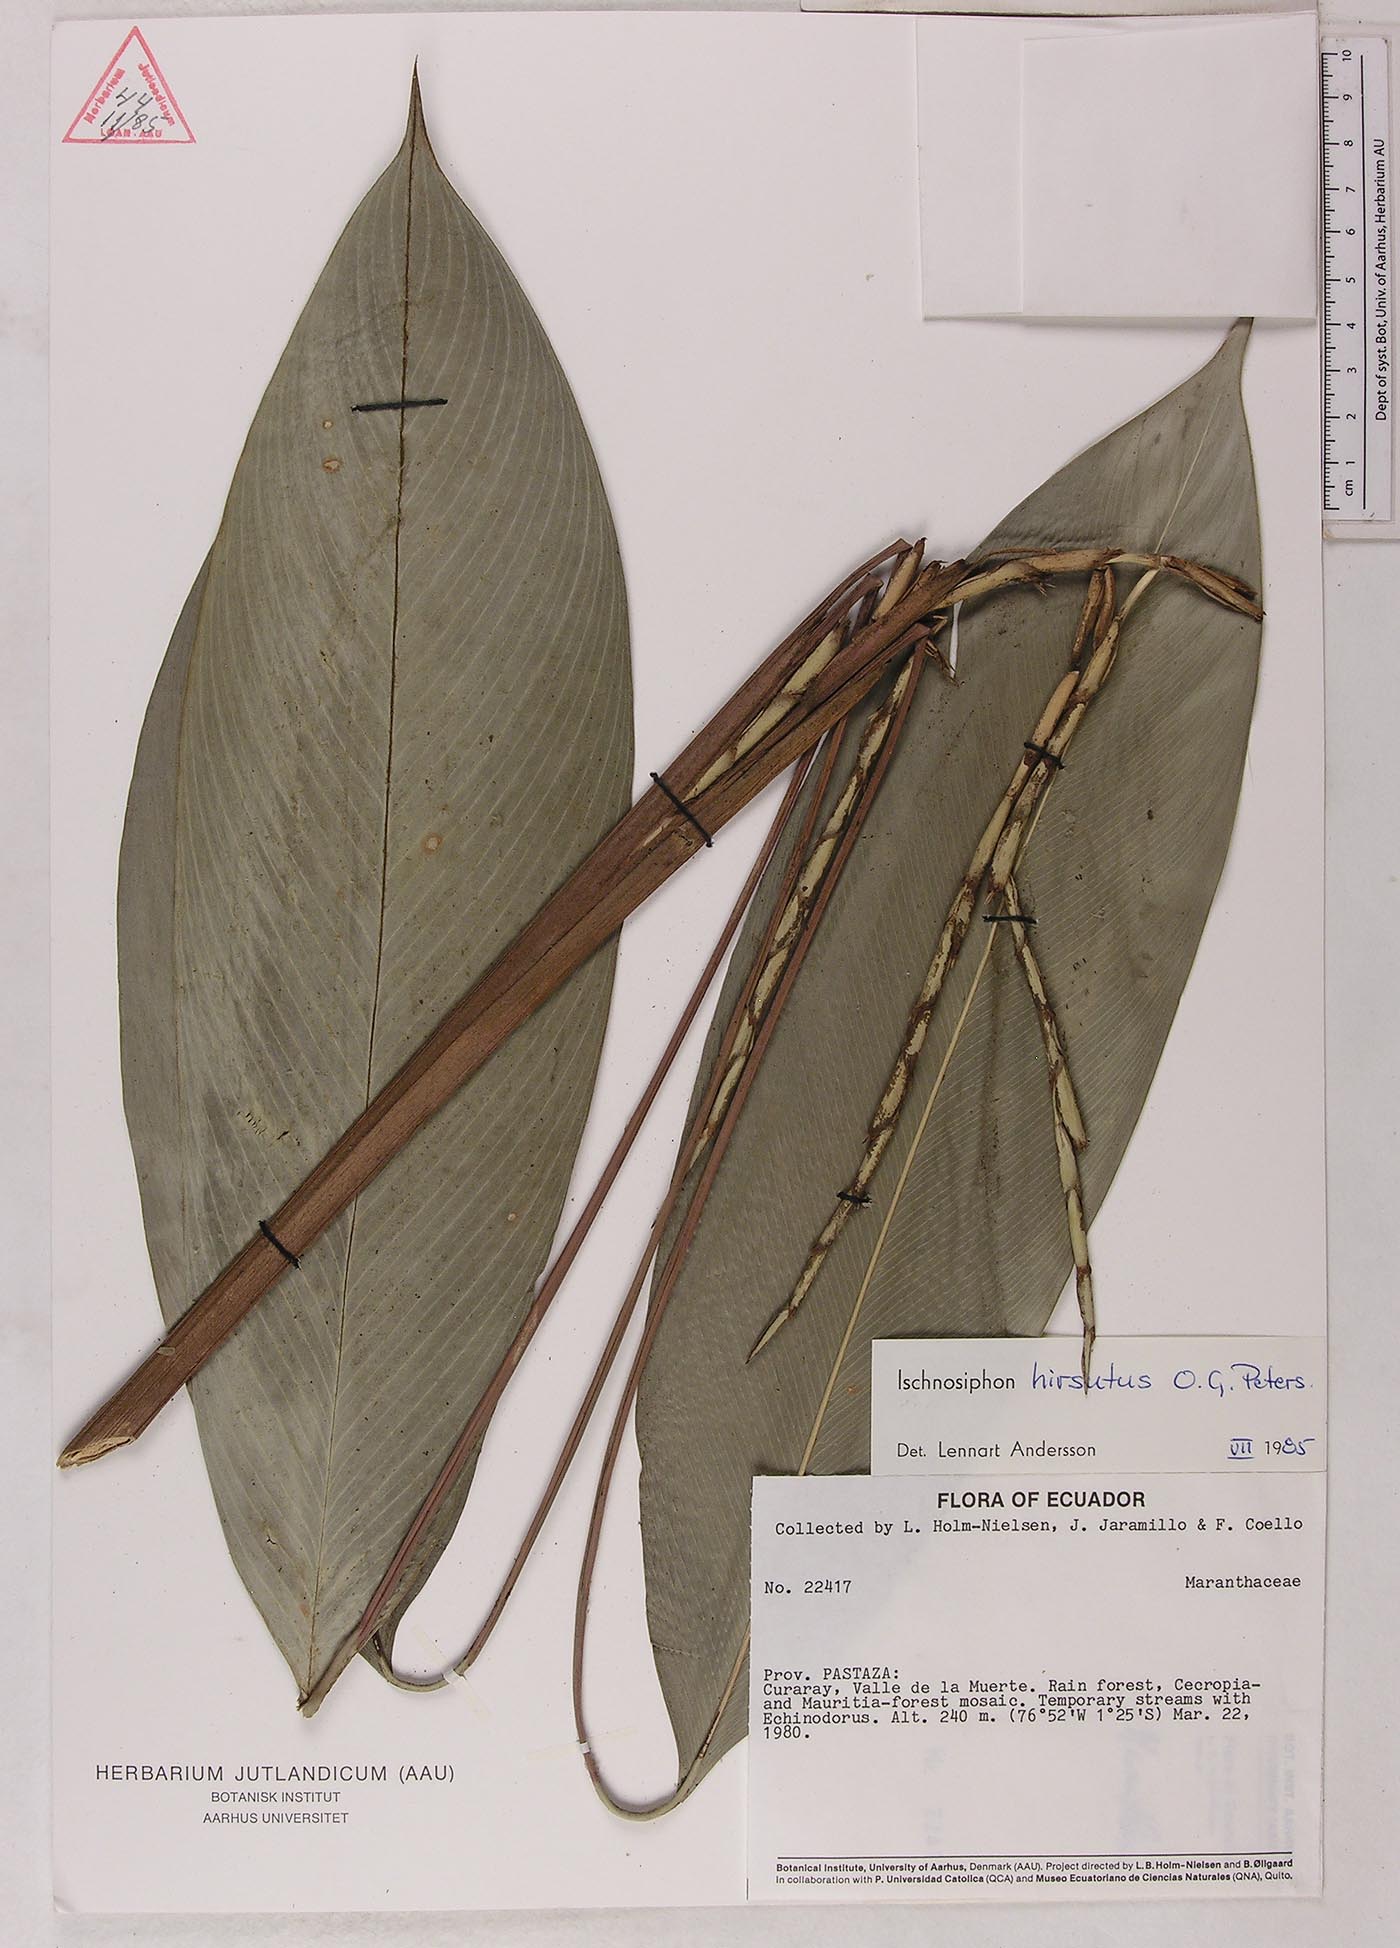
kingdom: Plantae
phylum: Tracheophyta
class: Liliopsida
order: Zingiberales
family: Marantaceae
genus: Ischnosiphon
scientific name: Ischnosiphon hirsutus
